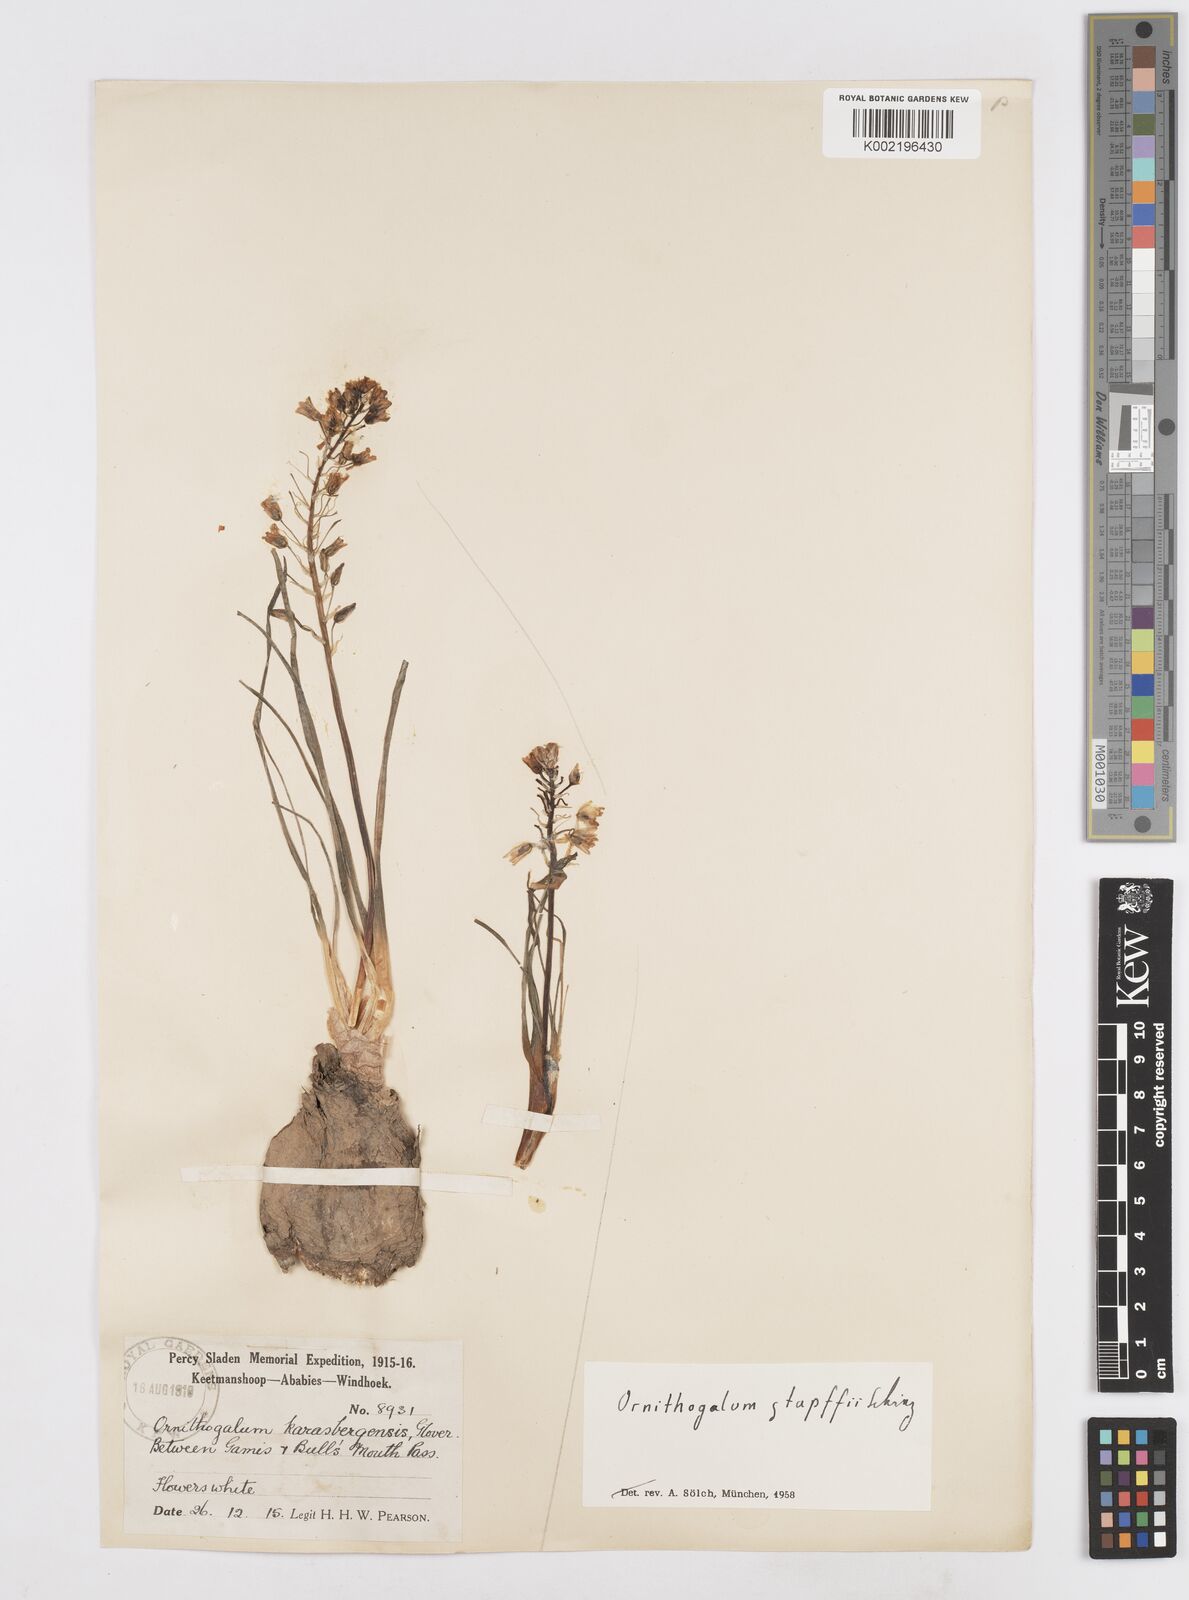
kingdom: Plantae
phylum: Tracheophyta
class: Liliopsida
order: Asparagales
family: Asparagaceae
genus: Albuca
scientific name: Albuca stapffii
